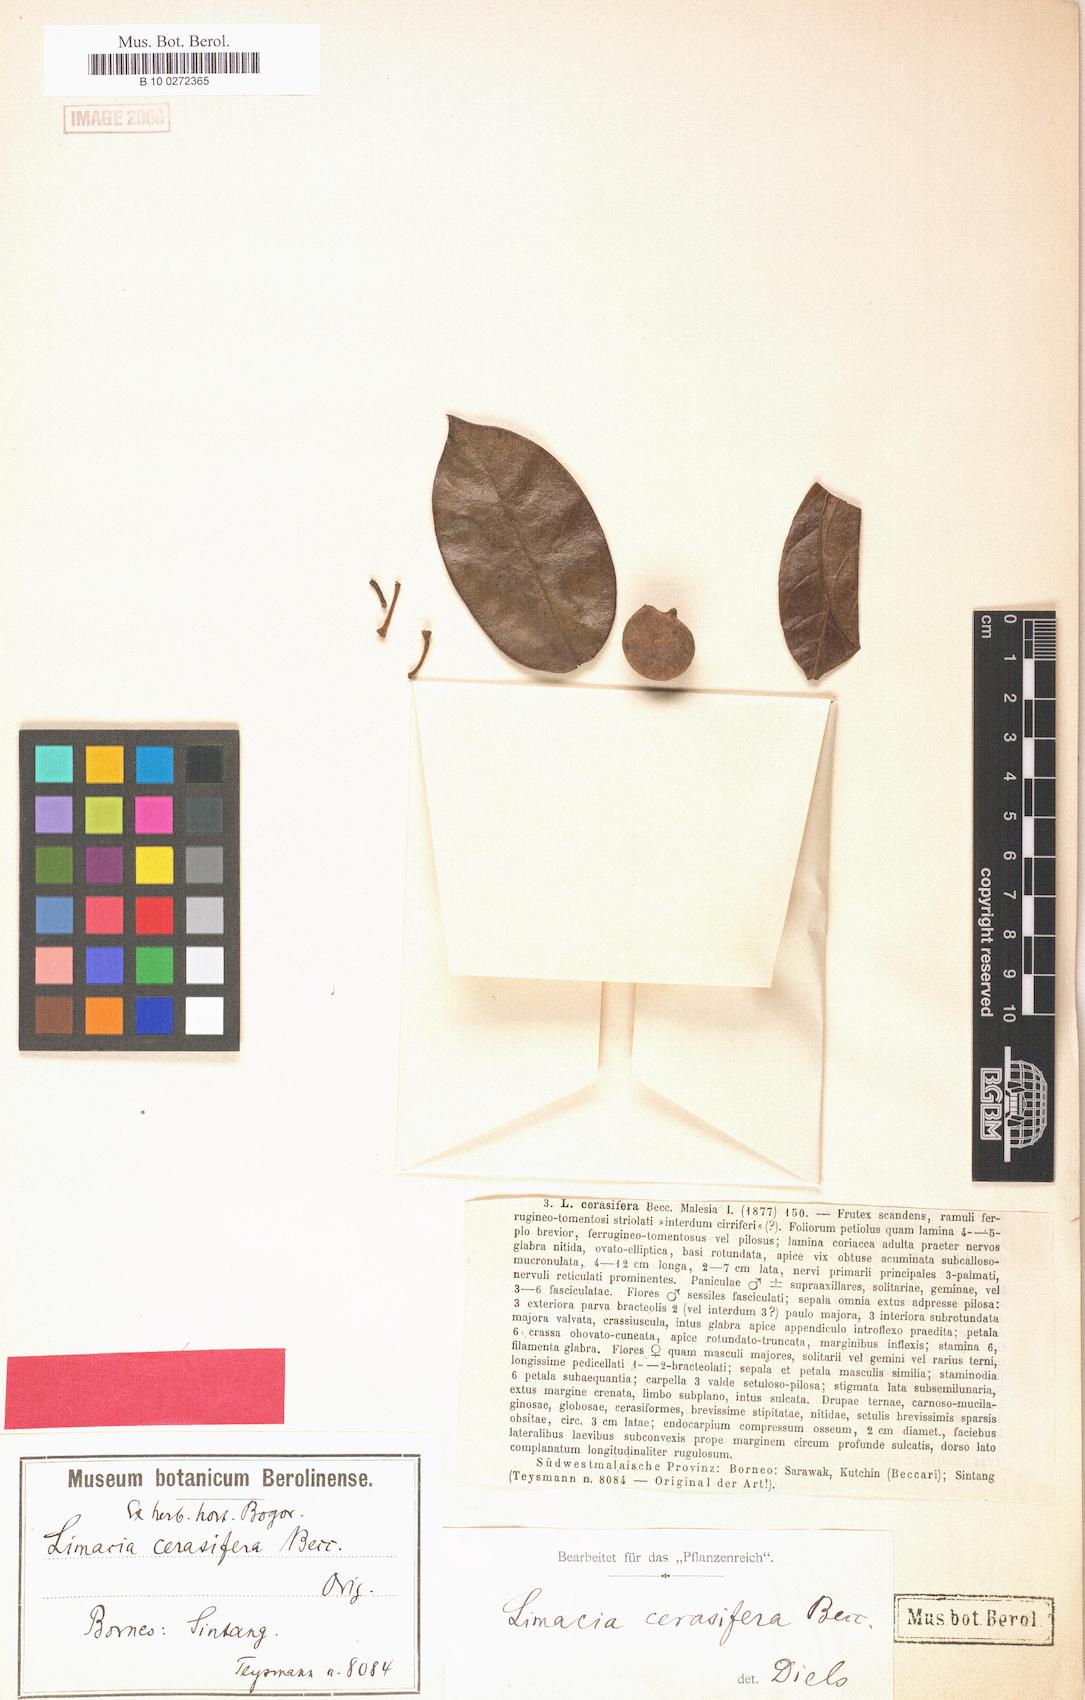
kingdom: Plantae
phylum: Tracheophyta
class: Magnoliopsida
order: Ranunculales
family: Menispermaceae
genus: Limacia
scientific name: Limacia scandens
